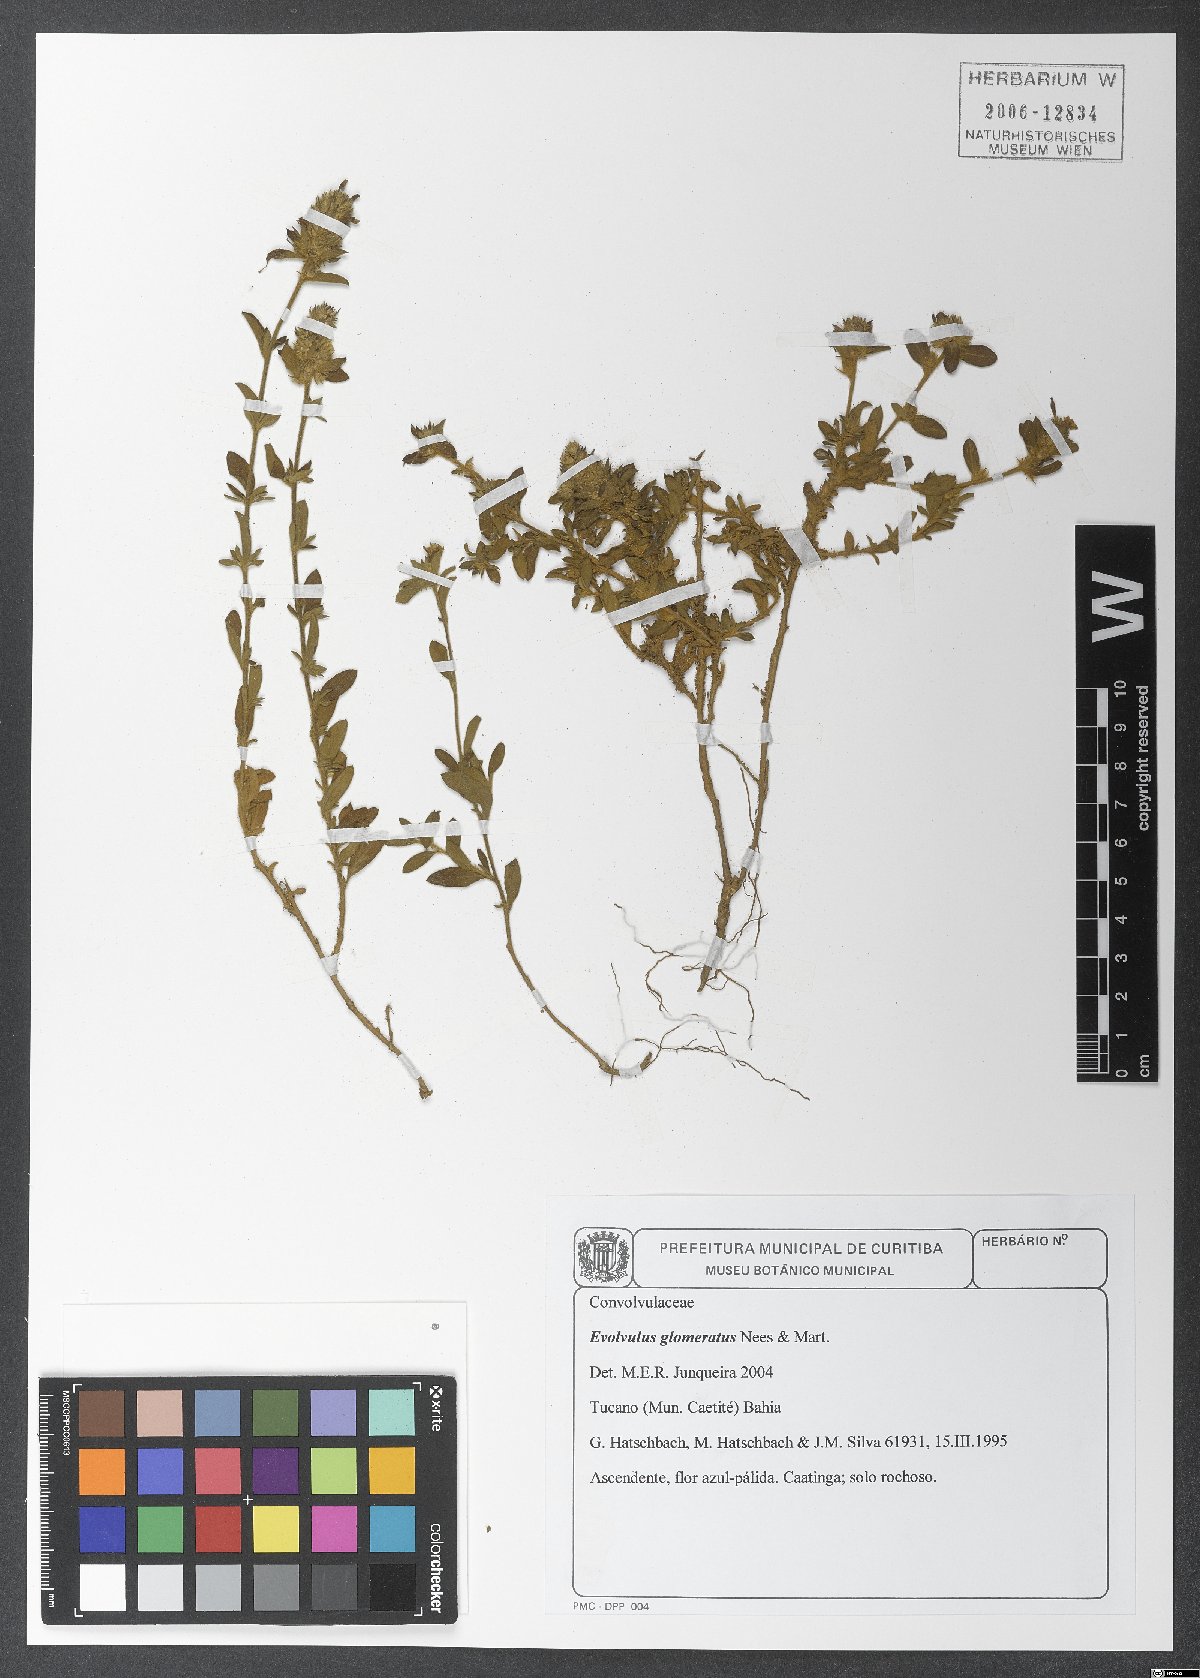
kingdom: Plantae
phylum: Tracheophyta
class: Magnoliopsida
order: Solanales
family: Convolvulaceae
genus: Evolvulus
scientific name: Evolvulus glomeratus
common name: Brazilian dwarf morning-glory
